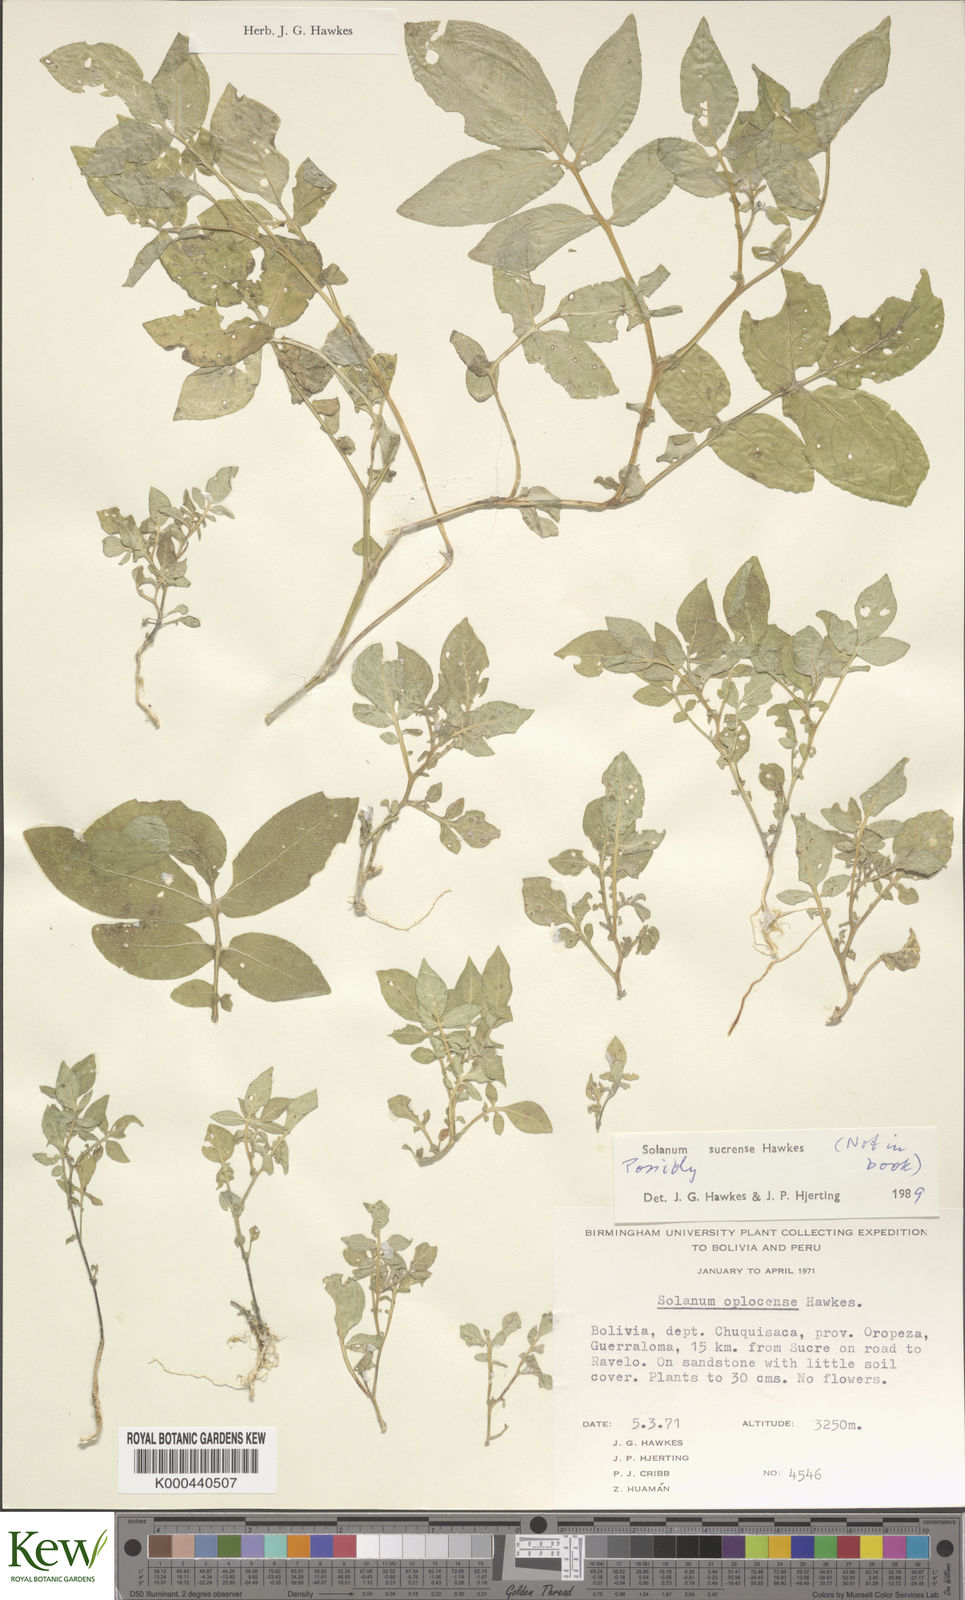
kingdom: Plantae
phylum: Tracheophyta
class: Magnoliopsida
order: Solanales
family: Solanaceae
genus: Solanum
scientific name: Solanum brevicaule
